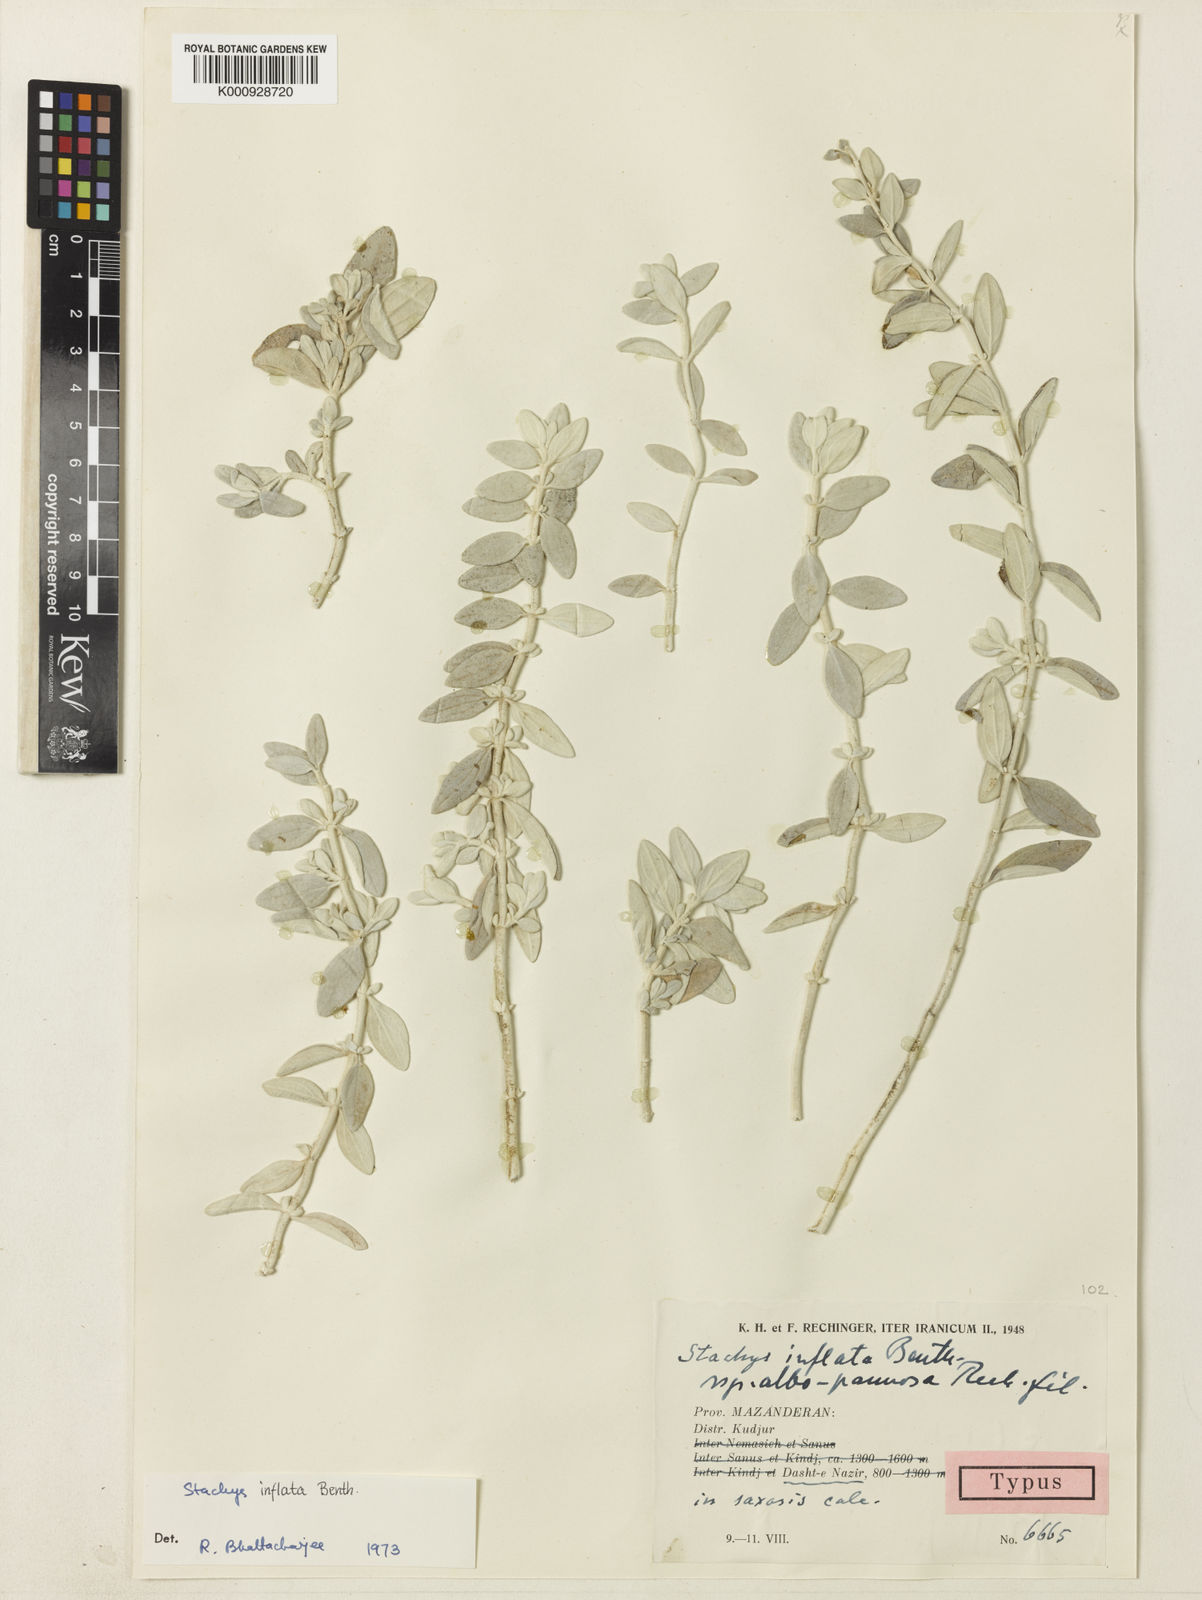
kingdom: Plantae
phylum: Tracheophyta
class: Magnoliopsida
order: Lamiales
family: Lamiaceae
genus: Stachys
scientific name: Stachys inflata
